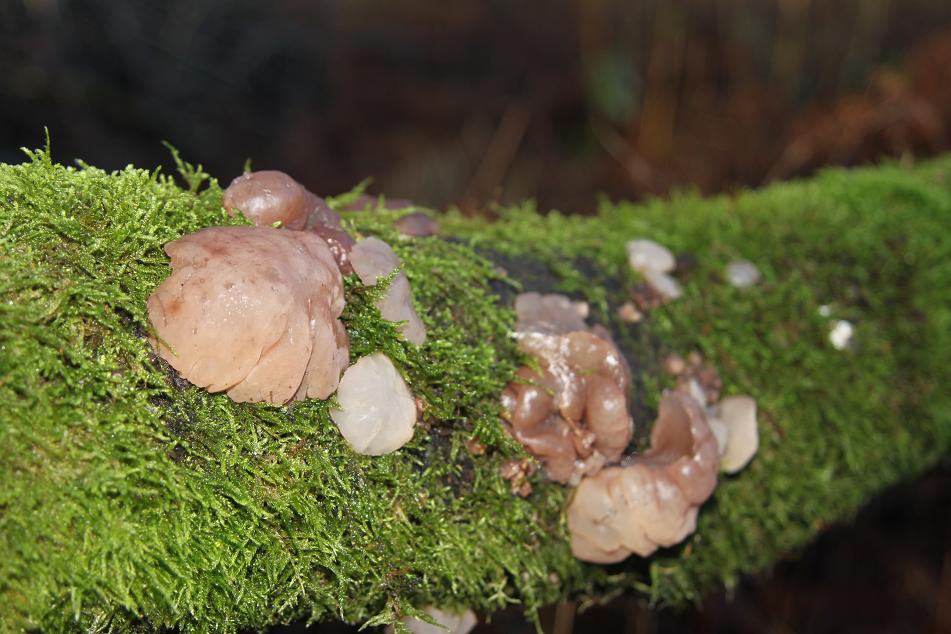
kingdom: Fungi
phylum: Ascomycota
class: Leotiomycetes
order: Helotiales
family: Gelatinodiscaceae
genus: Neobulgaria
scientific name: Neobulgaria pura
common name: bleg bævreskive
